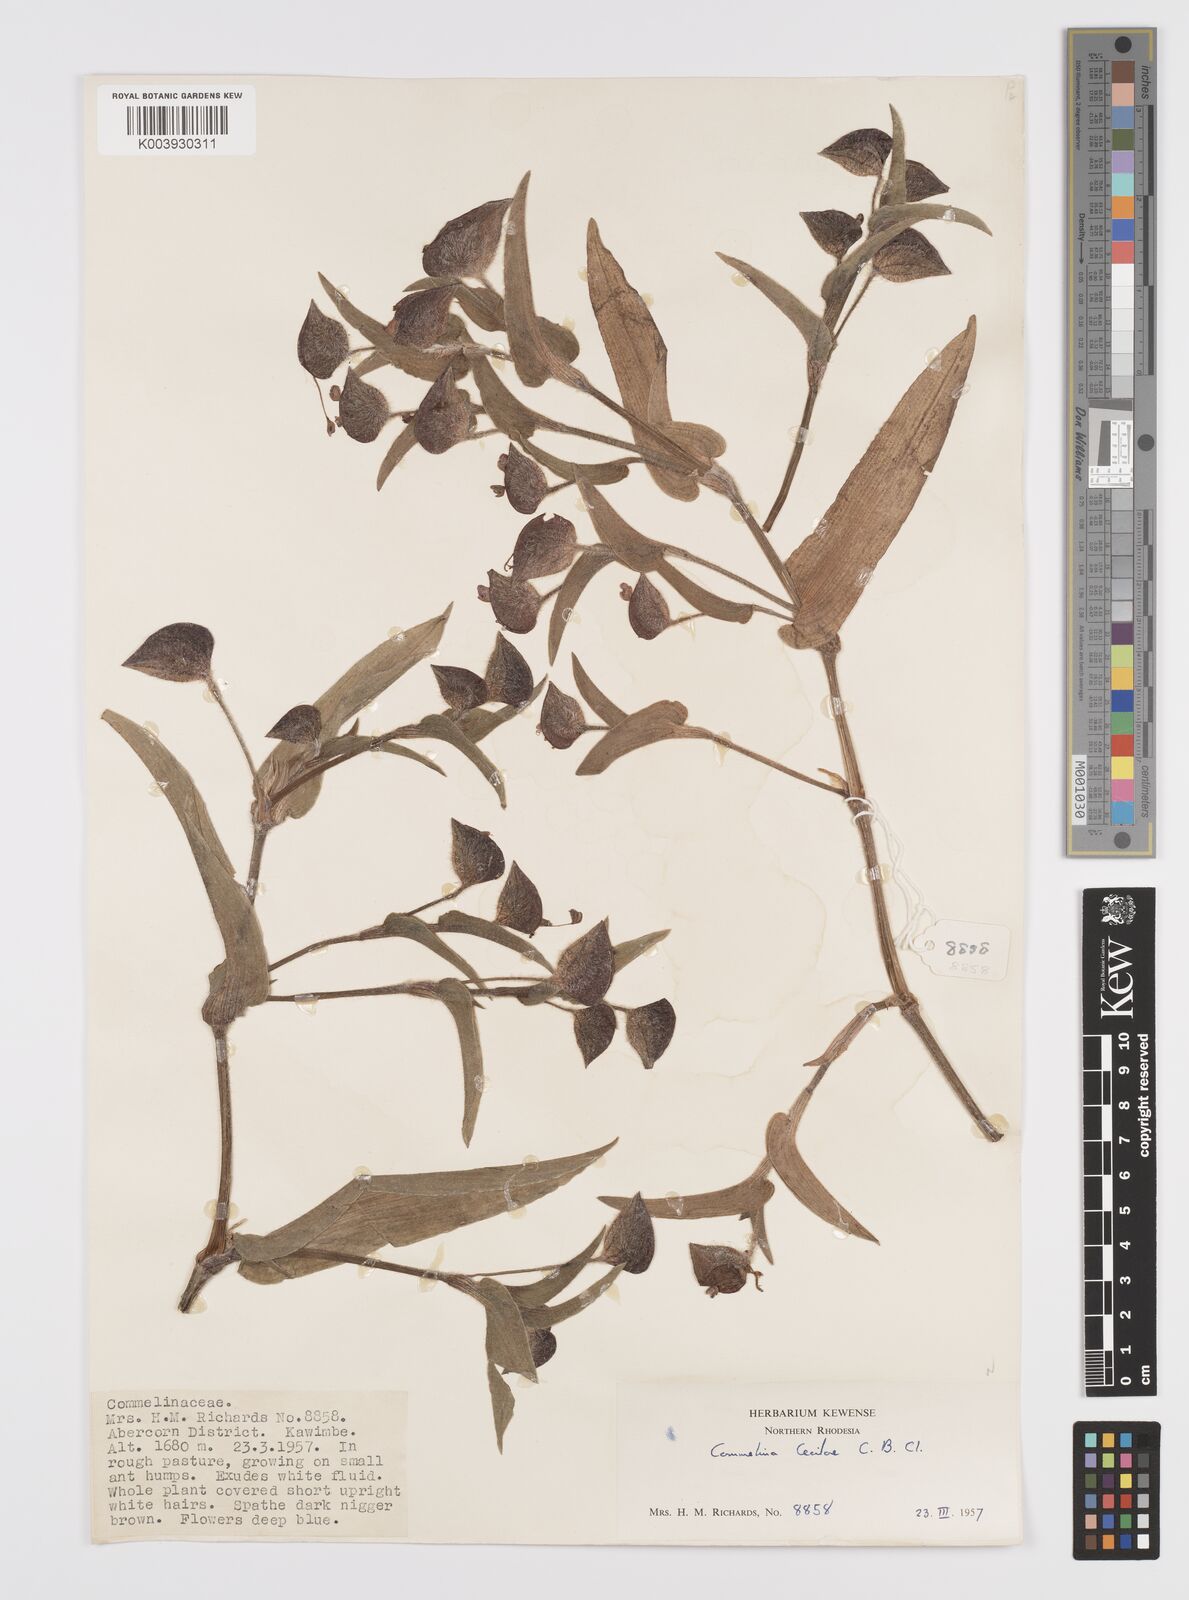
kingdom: Plantae
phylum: Tracheophyta
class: Liliopsida
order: Commelinales
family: Commelinaceae
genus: Commelina
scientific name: Commelina cecilae
